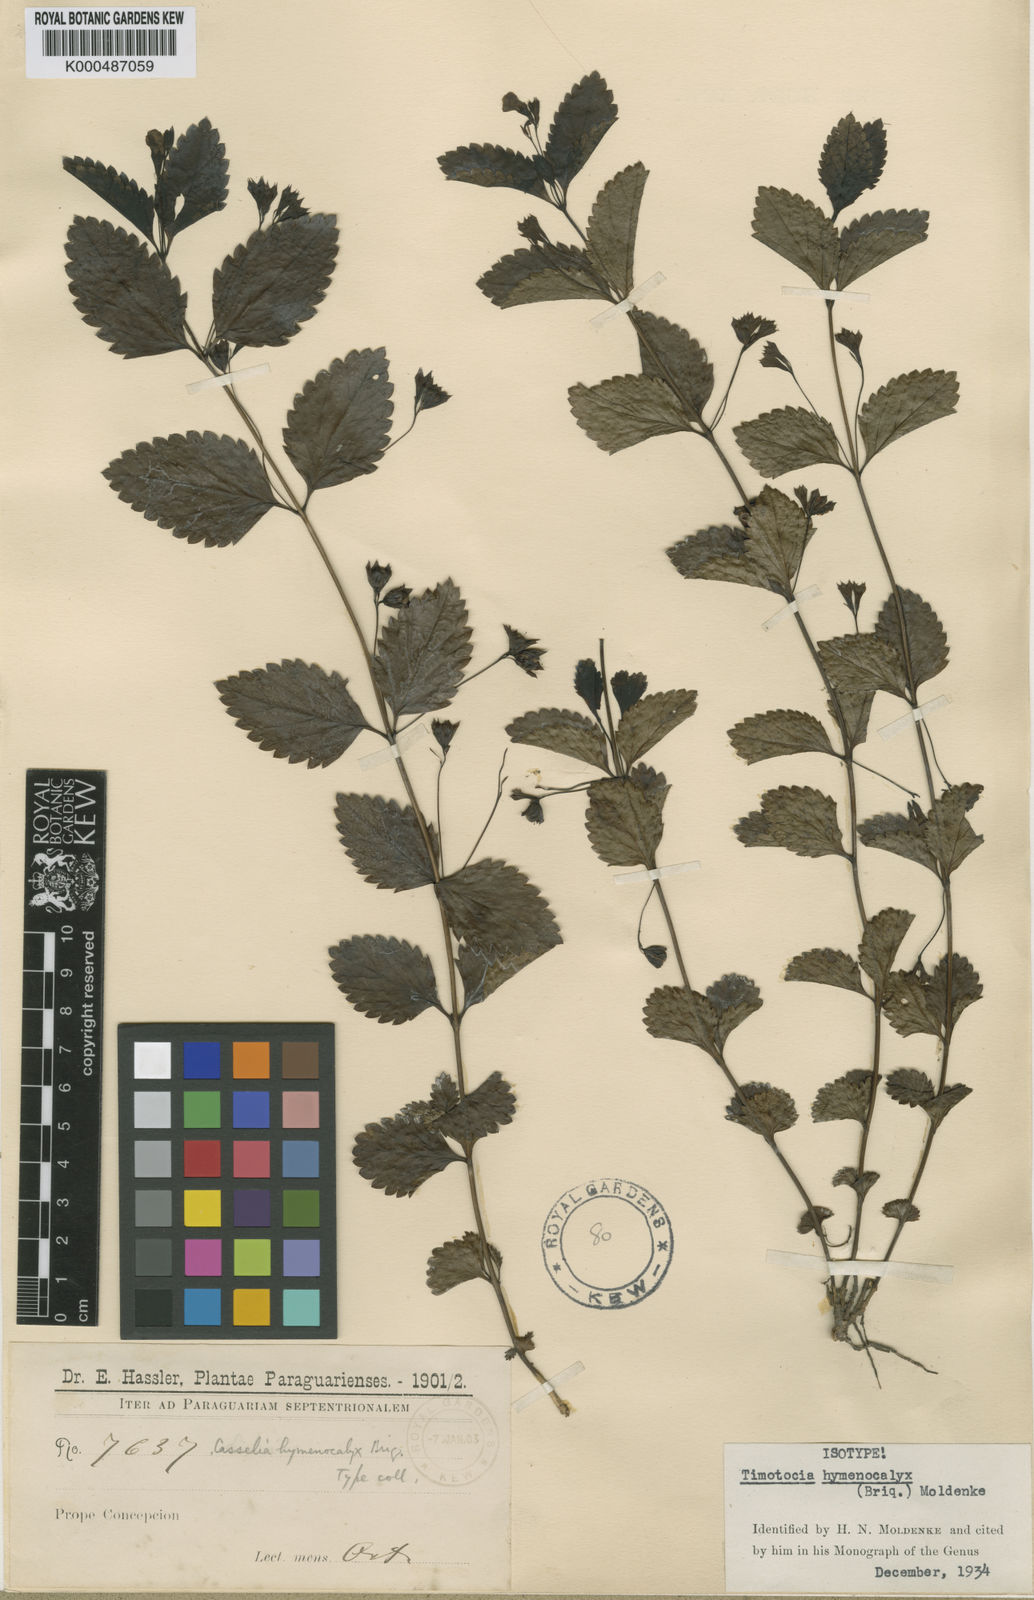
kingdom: Plantae
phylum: Tracheophyta
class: Magnoliopsida
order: Lamiales
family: Verbenaceae
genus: Casselia
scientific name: Casselia chamaedryfolia
